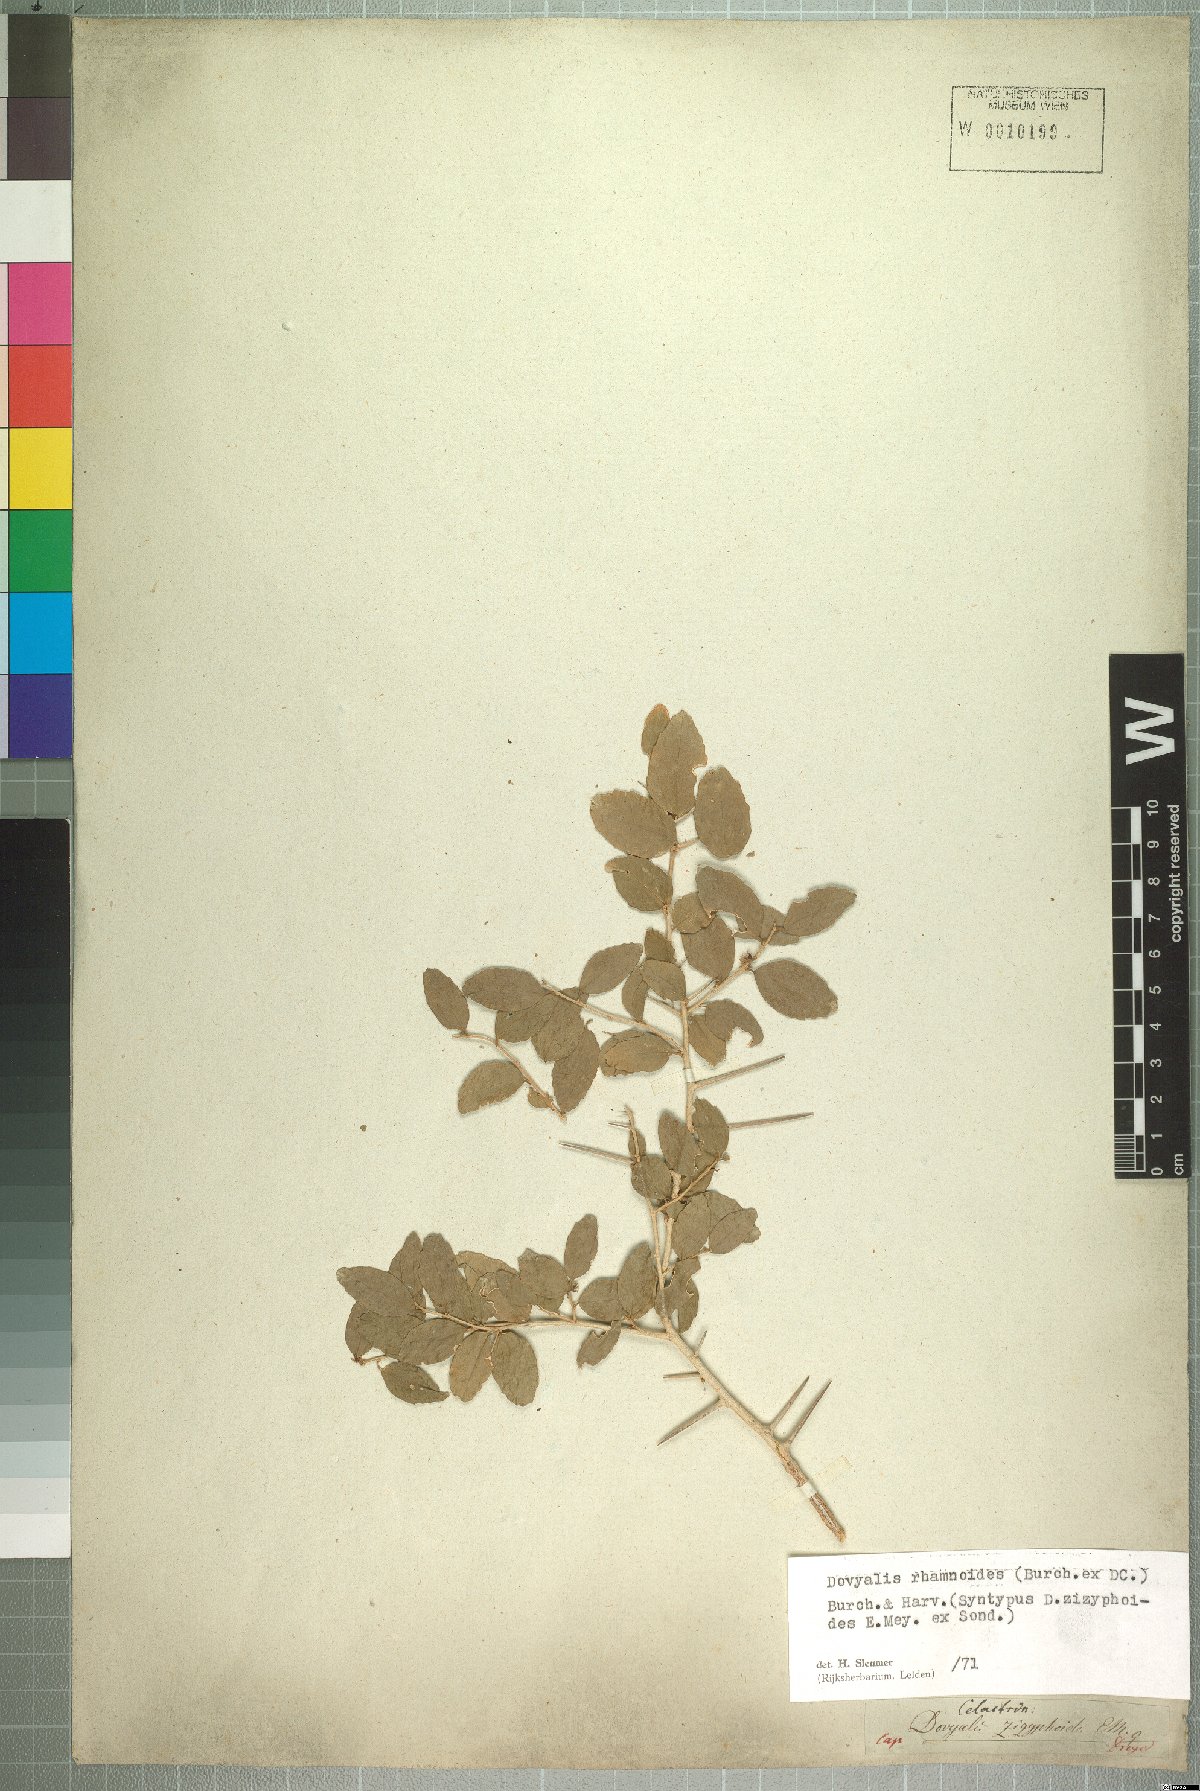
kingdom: Plantae
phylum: Tracheophyta
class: Magnoliopsida
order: Malpighiales
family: Salicaceae
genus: Dovyalis
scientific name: Dovyalis rhamnoides
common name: Sourberry
